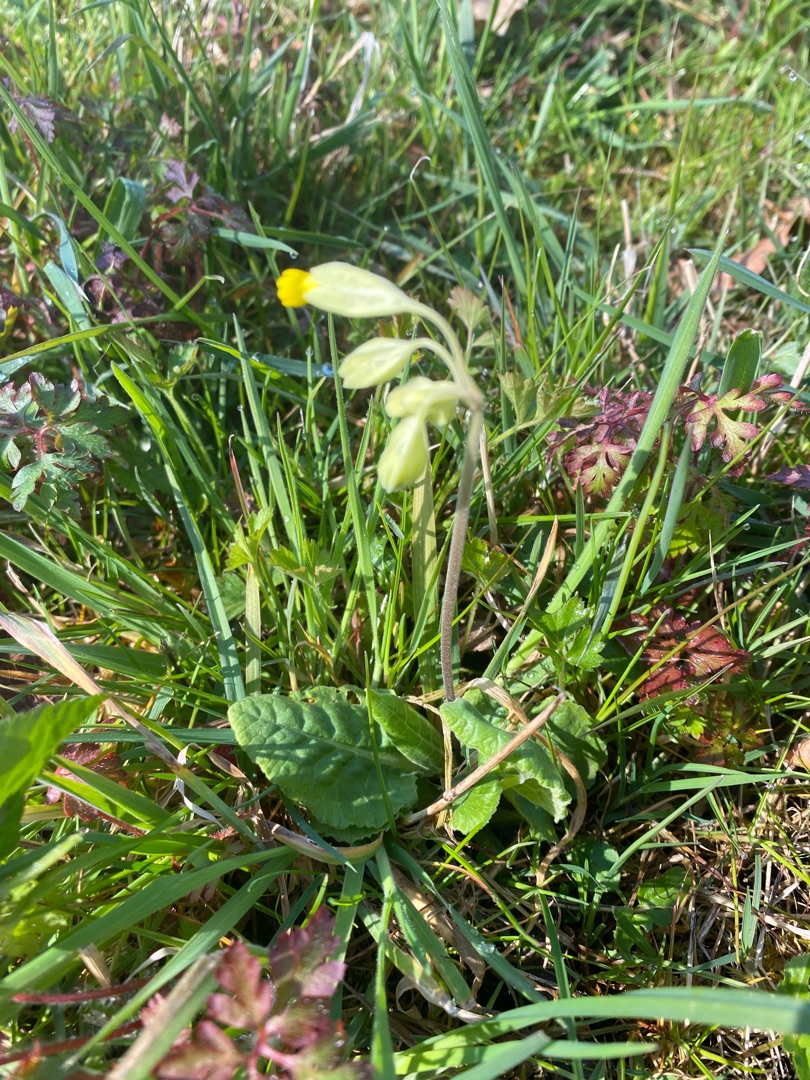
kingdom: Plantae
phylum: Tracheophyta
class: Magnoliopsida
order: Ericales
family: Primulaceae
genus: Primula
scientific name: Primula veris
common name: Hulkravet kodriver
